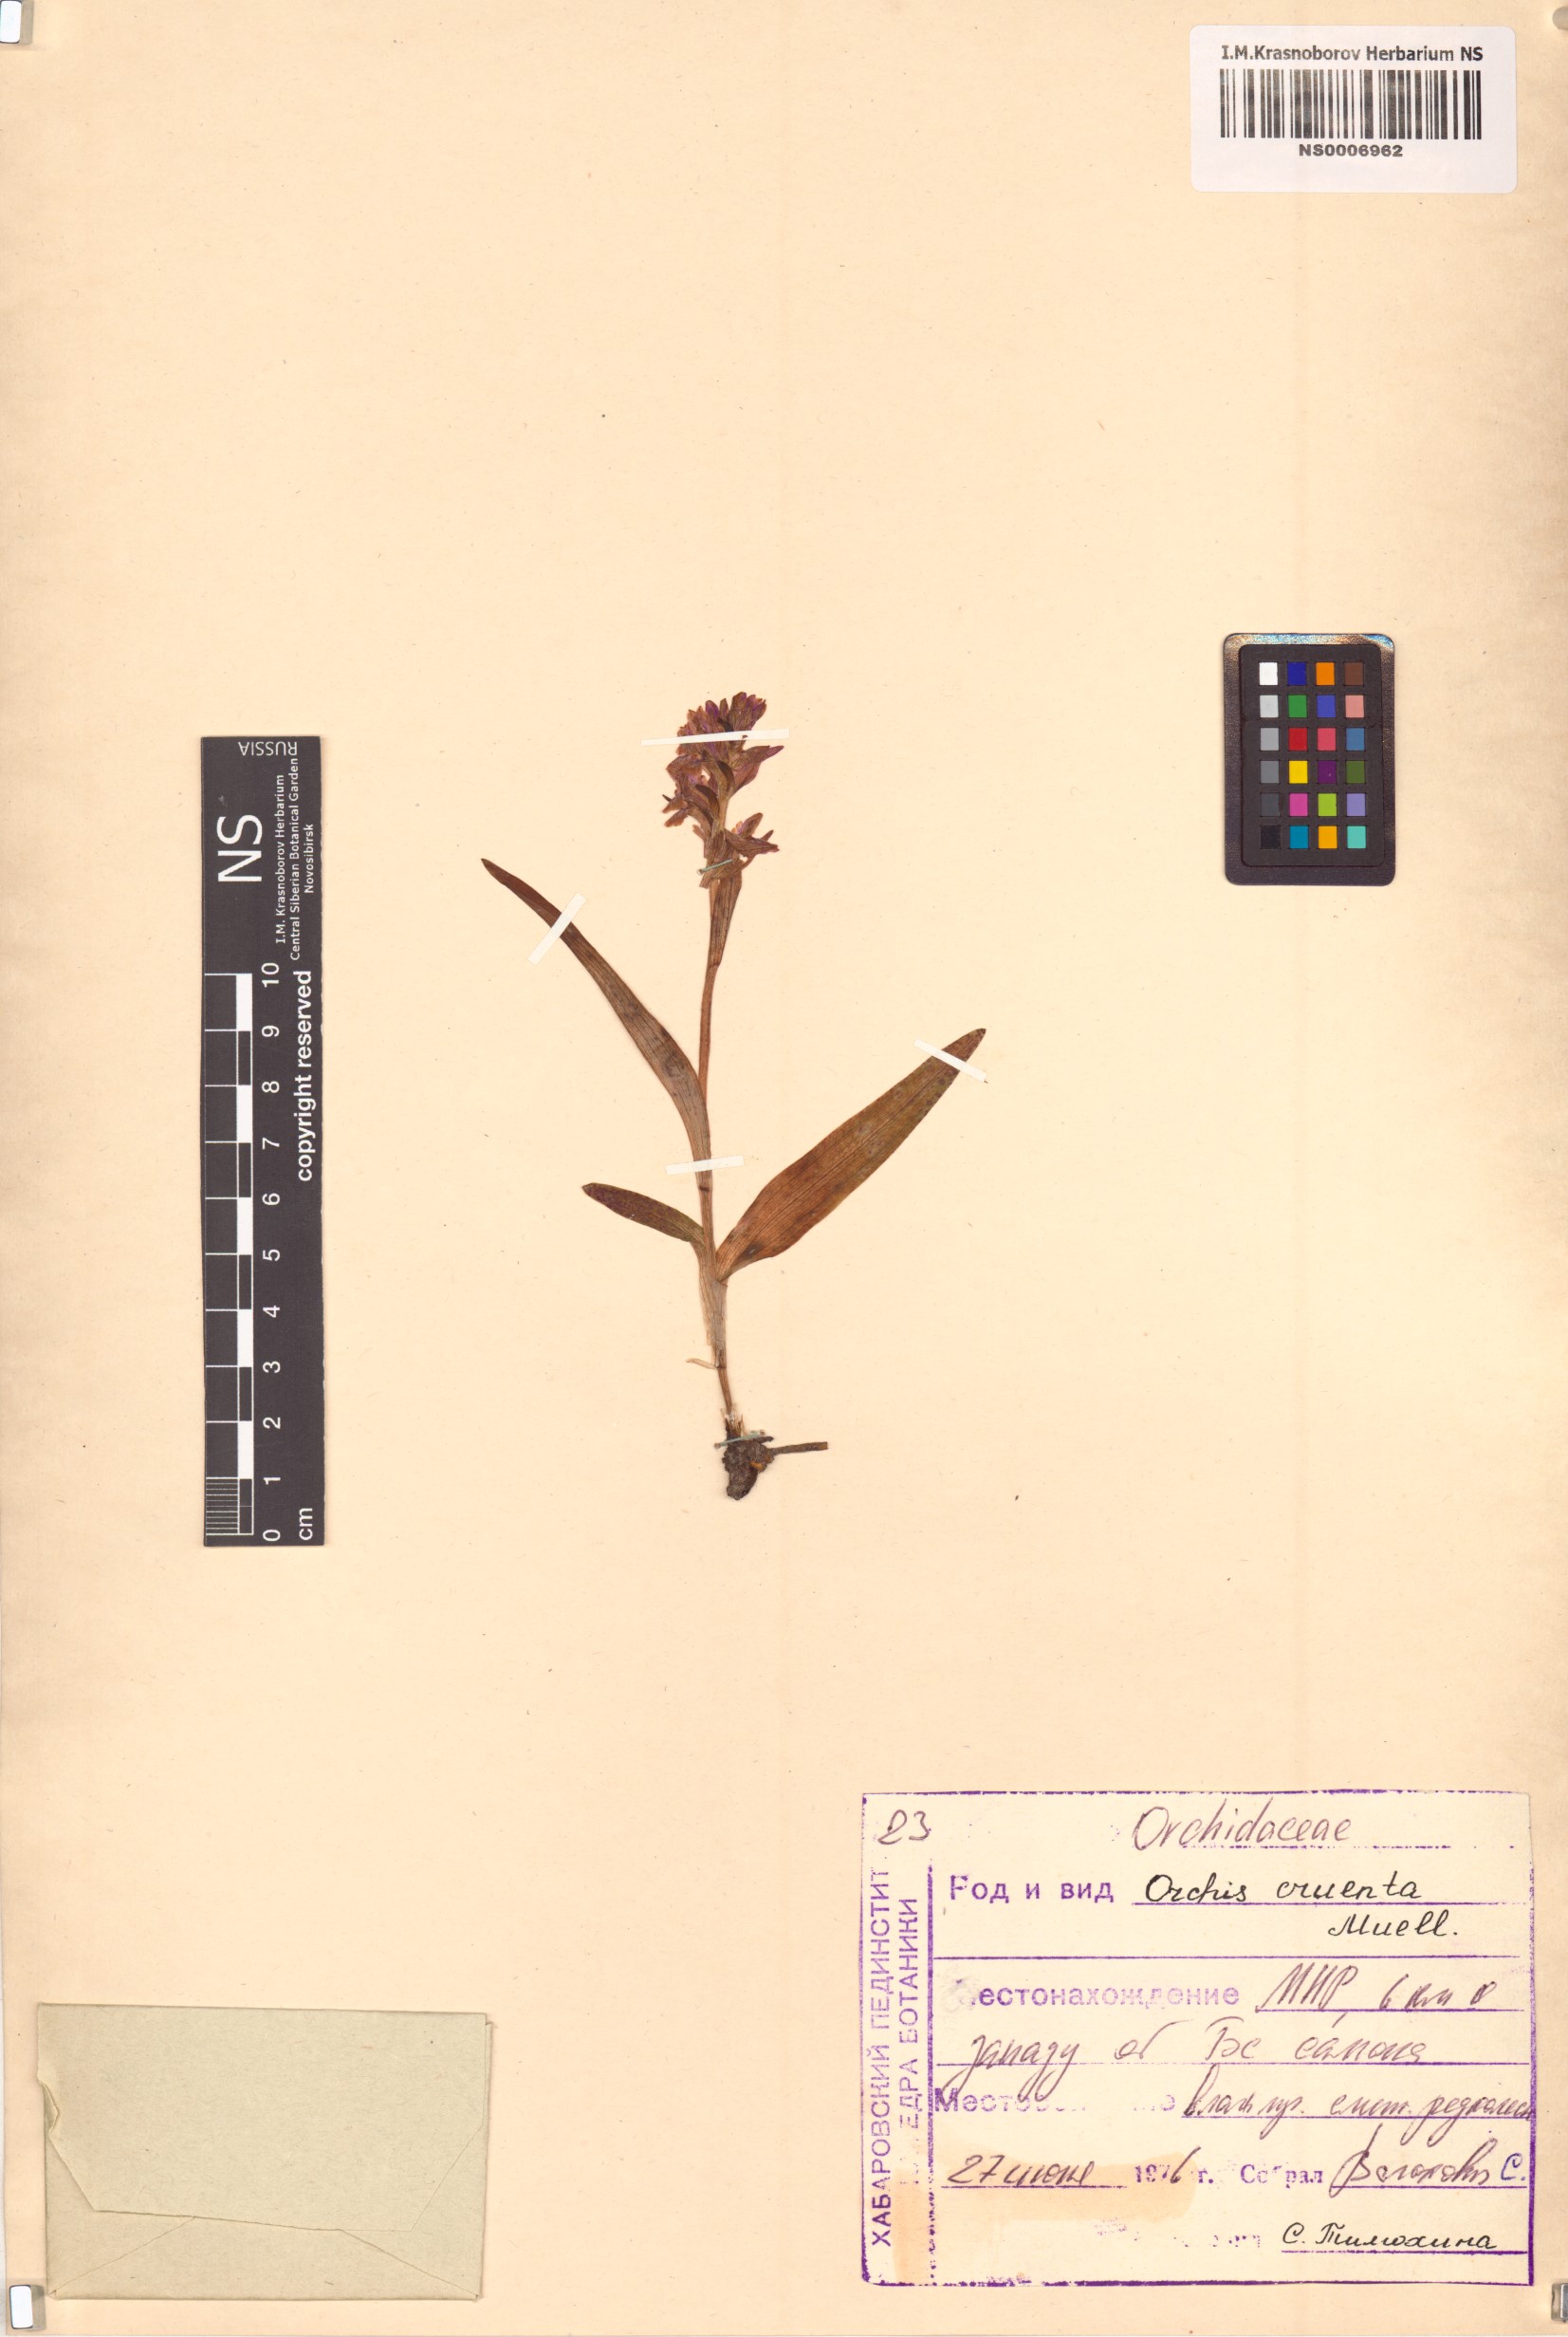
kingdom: Plantae
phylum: Tracheophyta
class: Liliopsida
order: Asparagales
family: Orchidaceae
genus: Dactylorhiza
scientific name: Dactylorhiza incarnata
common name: Early marsh-orchid
